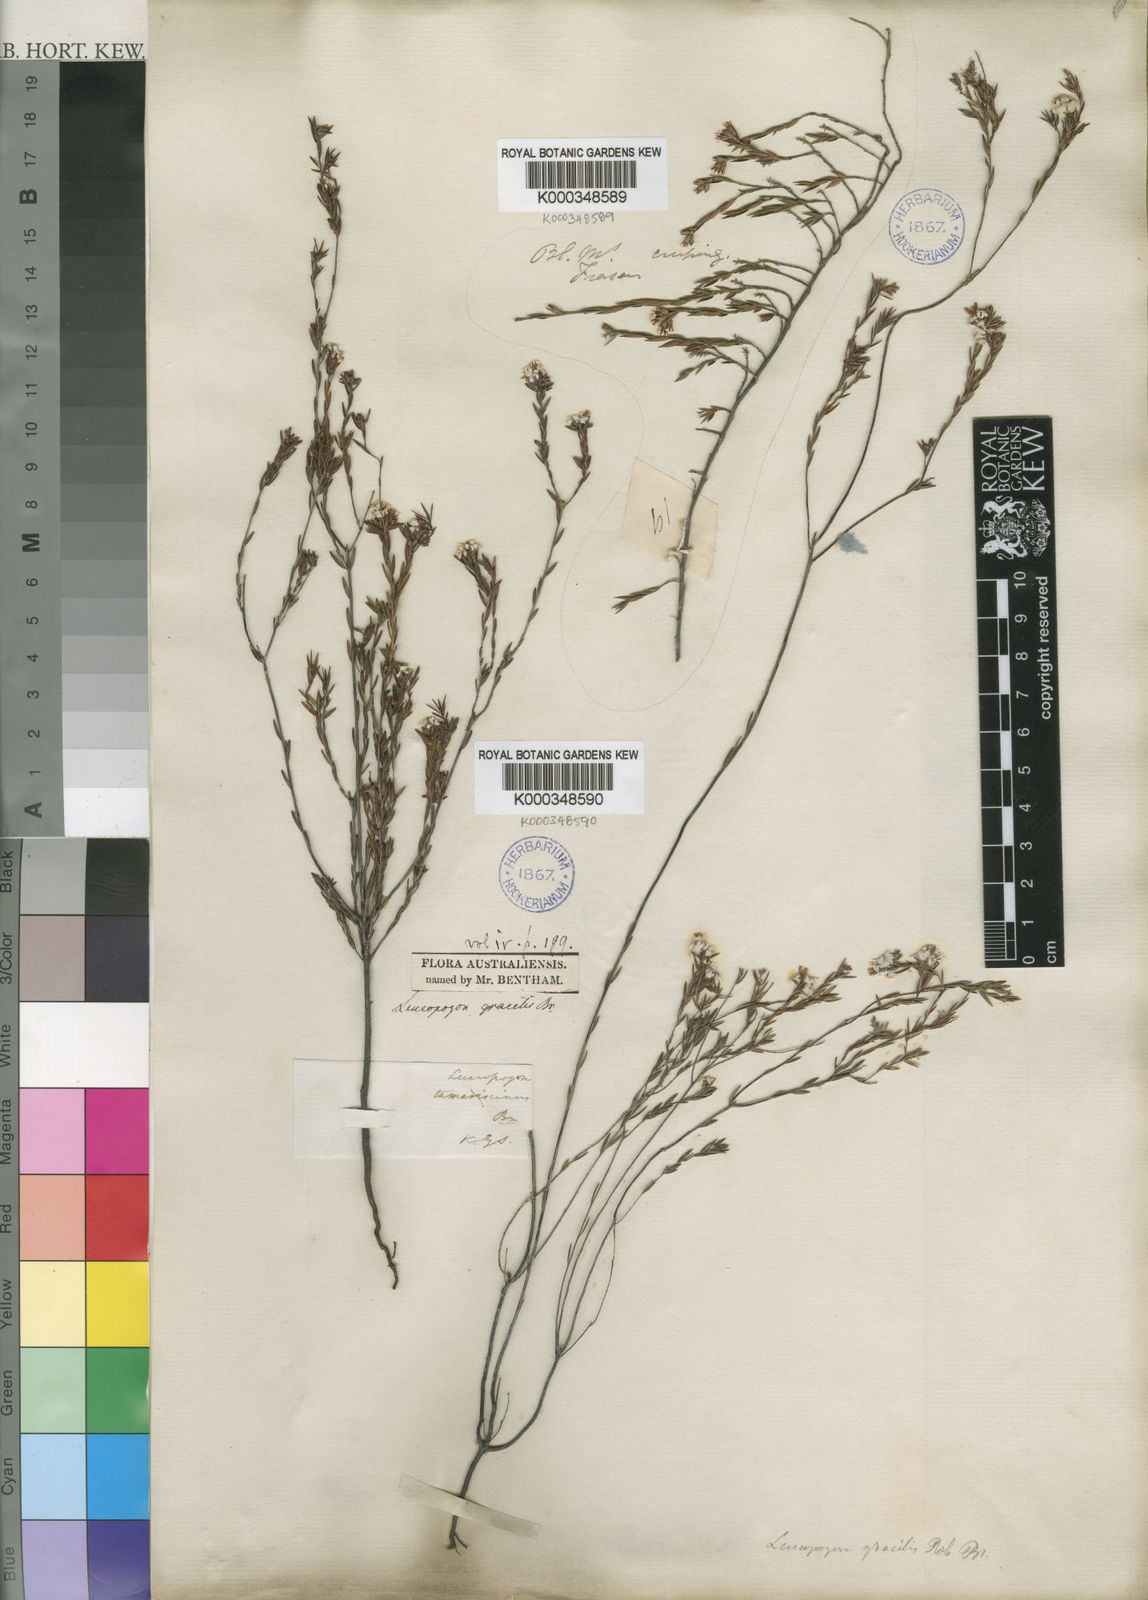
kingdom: Plantae
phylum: Tracheophyta
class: Magnoliopsida
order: Ericales
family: Ericaceae
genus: Leucopogon
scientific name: Leucopogon gracilis
